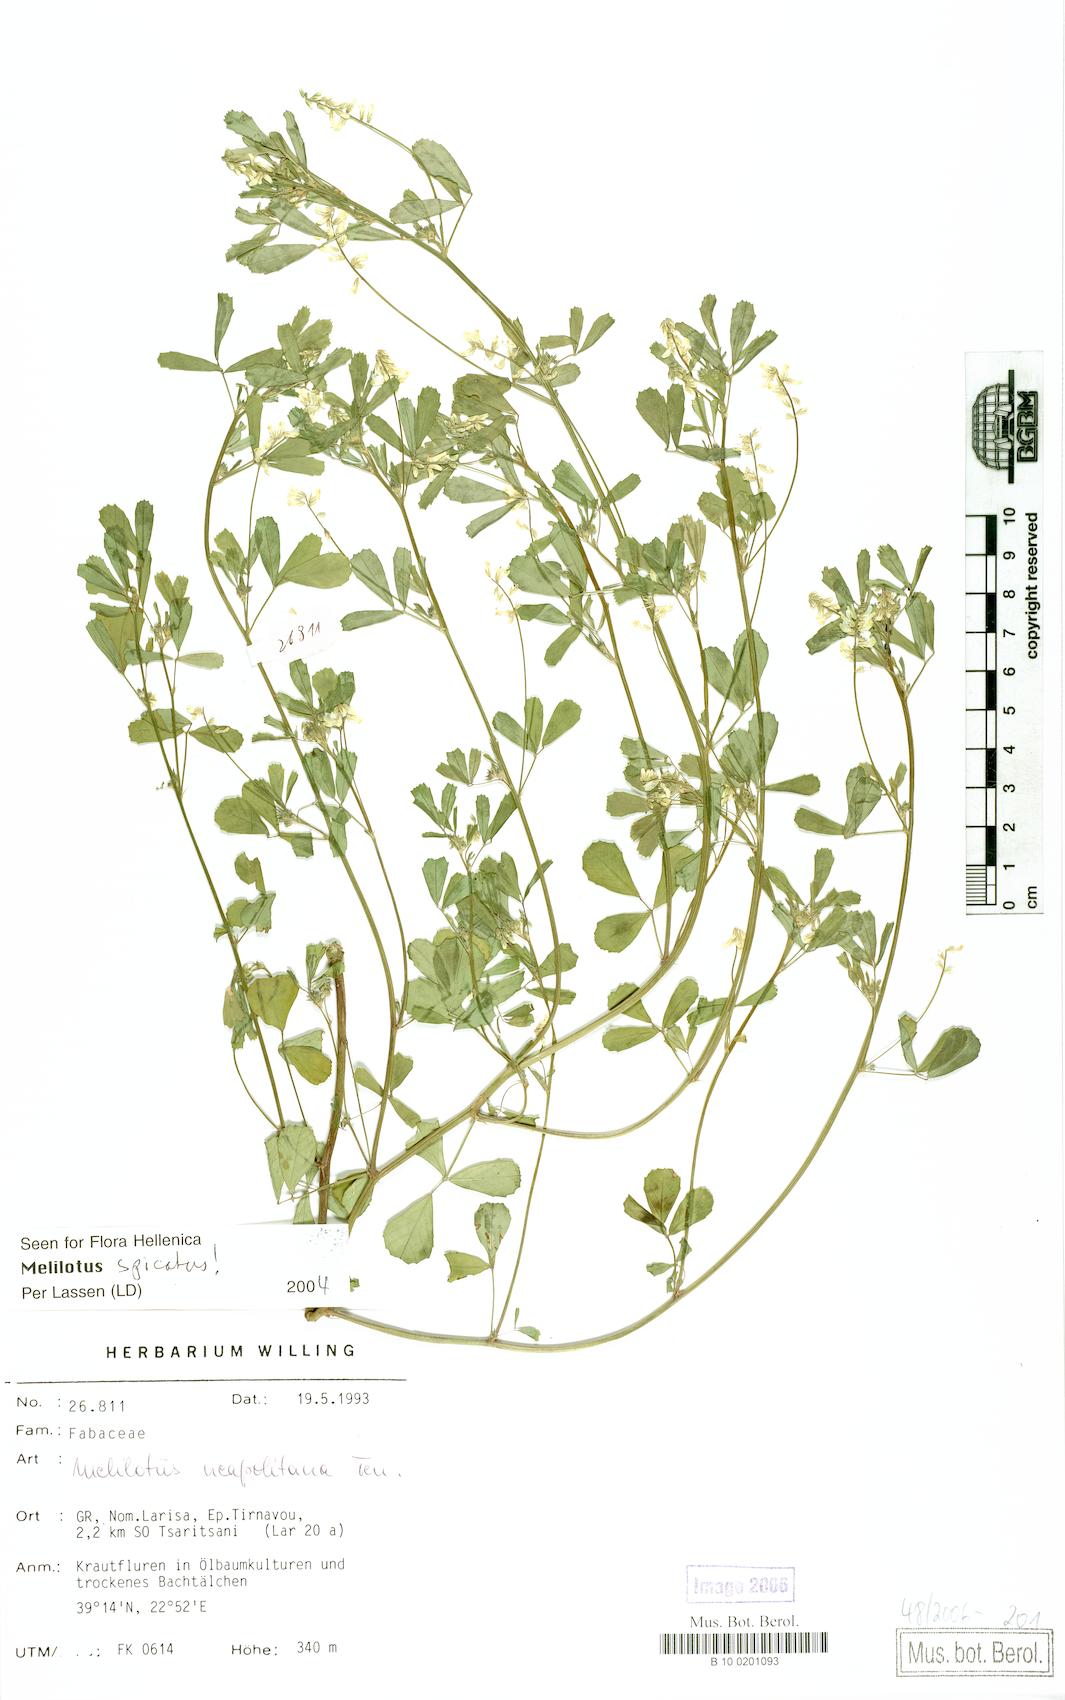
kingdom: Plantae
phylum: Tracheophyta
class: Magnoliopsida
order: Fabales
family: Fabaceae
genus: Melilotus
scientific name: Melilotus neapolitanus
